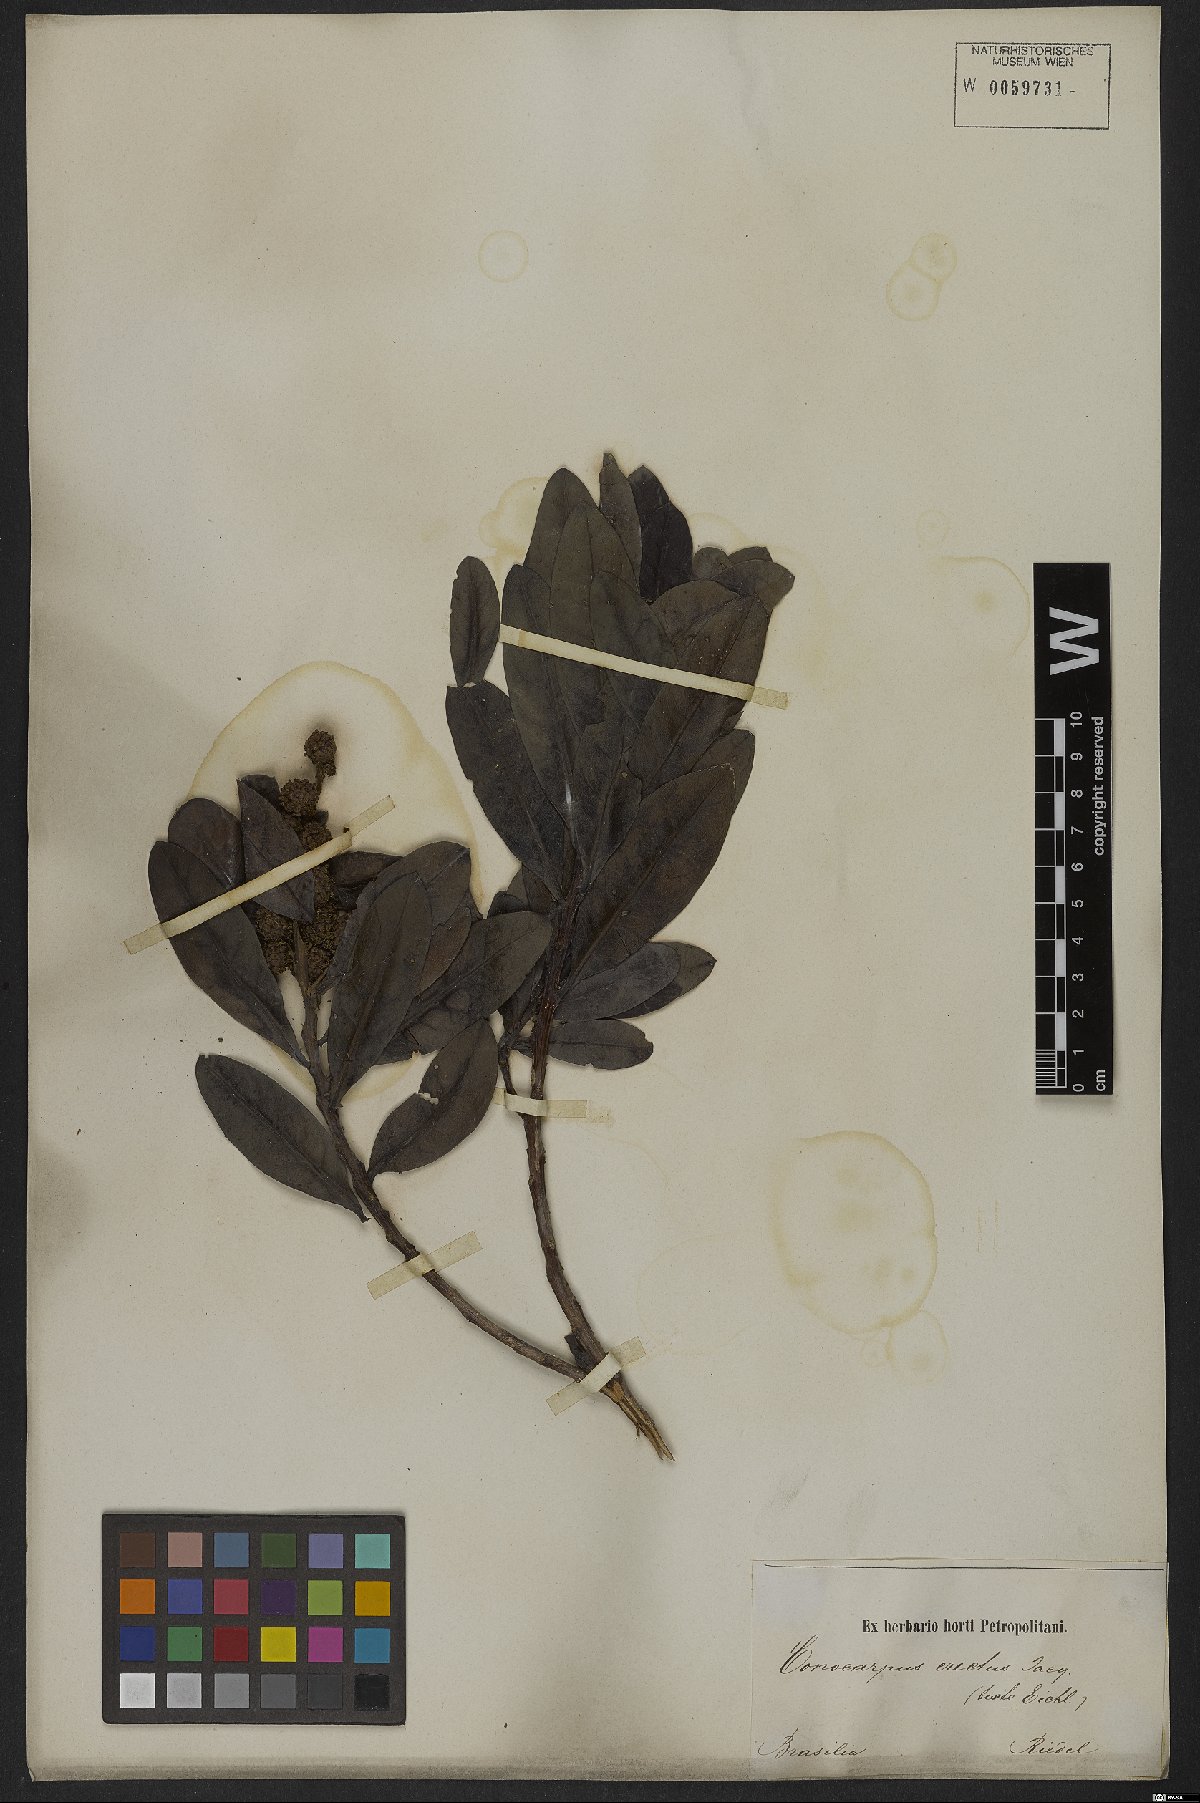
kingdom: Plantae
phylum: Tracheophyta
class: Magnoliopsida
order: Myrtales
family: Combretaceae
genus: Conocarpus
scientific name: Conocarpus erectus
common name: Button mangrove
